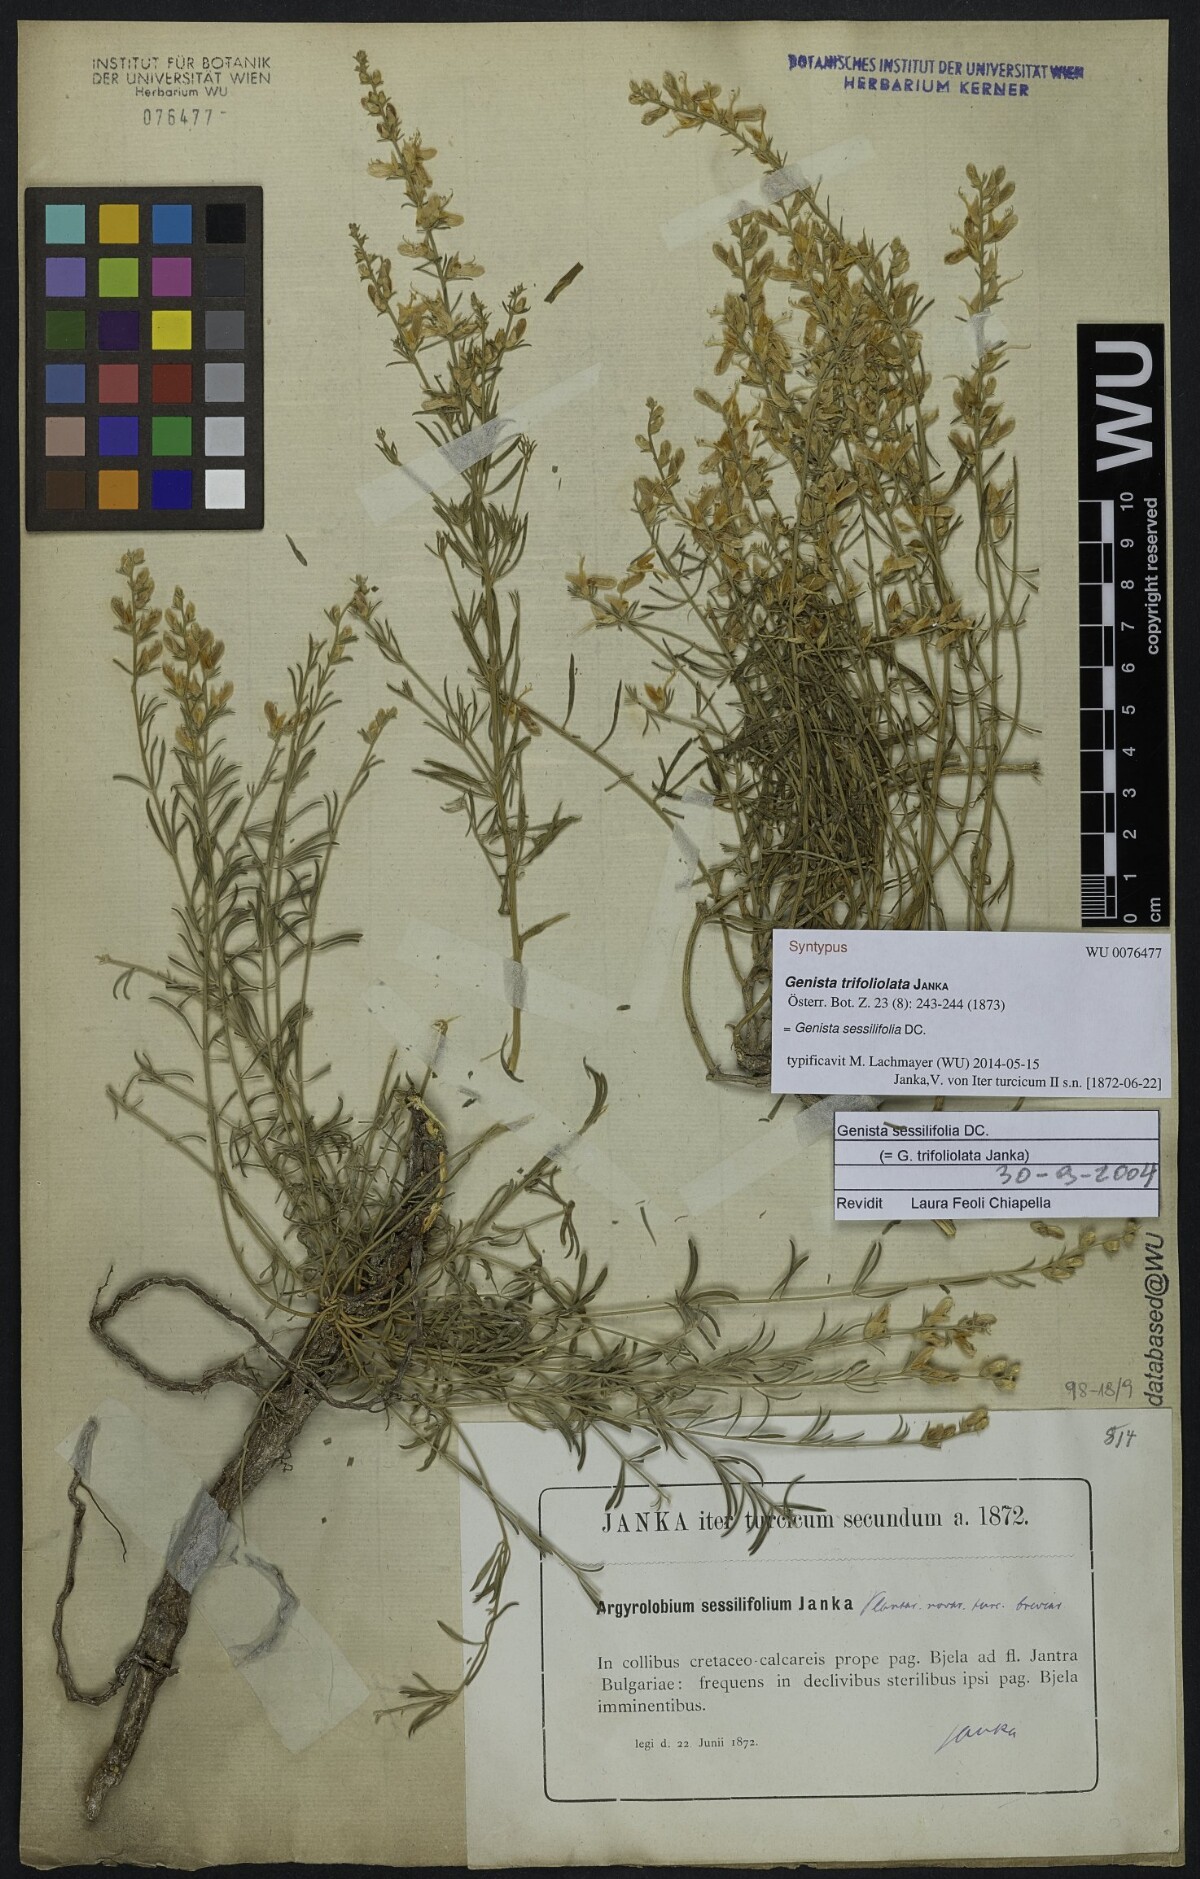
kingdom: Plantae
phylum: Tracheophyta
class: Magnoliopsida
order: Fabales
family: Fabaceae
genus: Genista
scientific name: Genista sessilifolia
